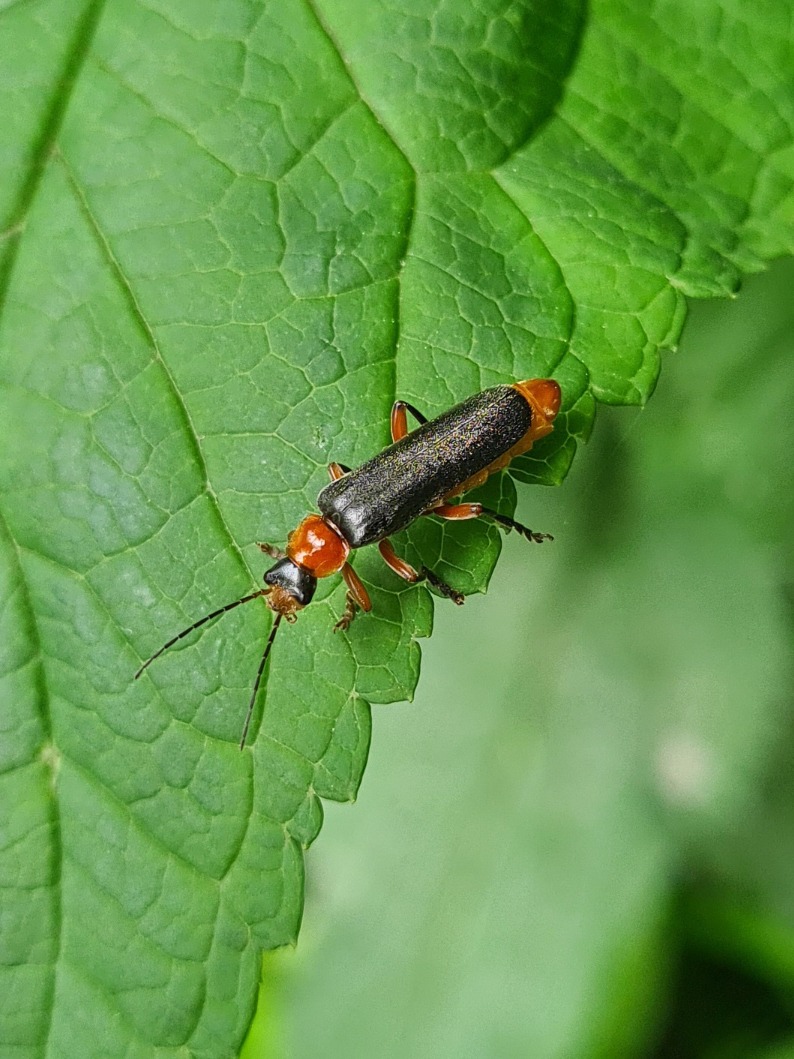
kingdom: Animalia
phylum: Arthropoda
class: Insecta
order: Coleoptera
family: Cantharidae
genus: Cantharis
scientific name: Cantharis pellucida
